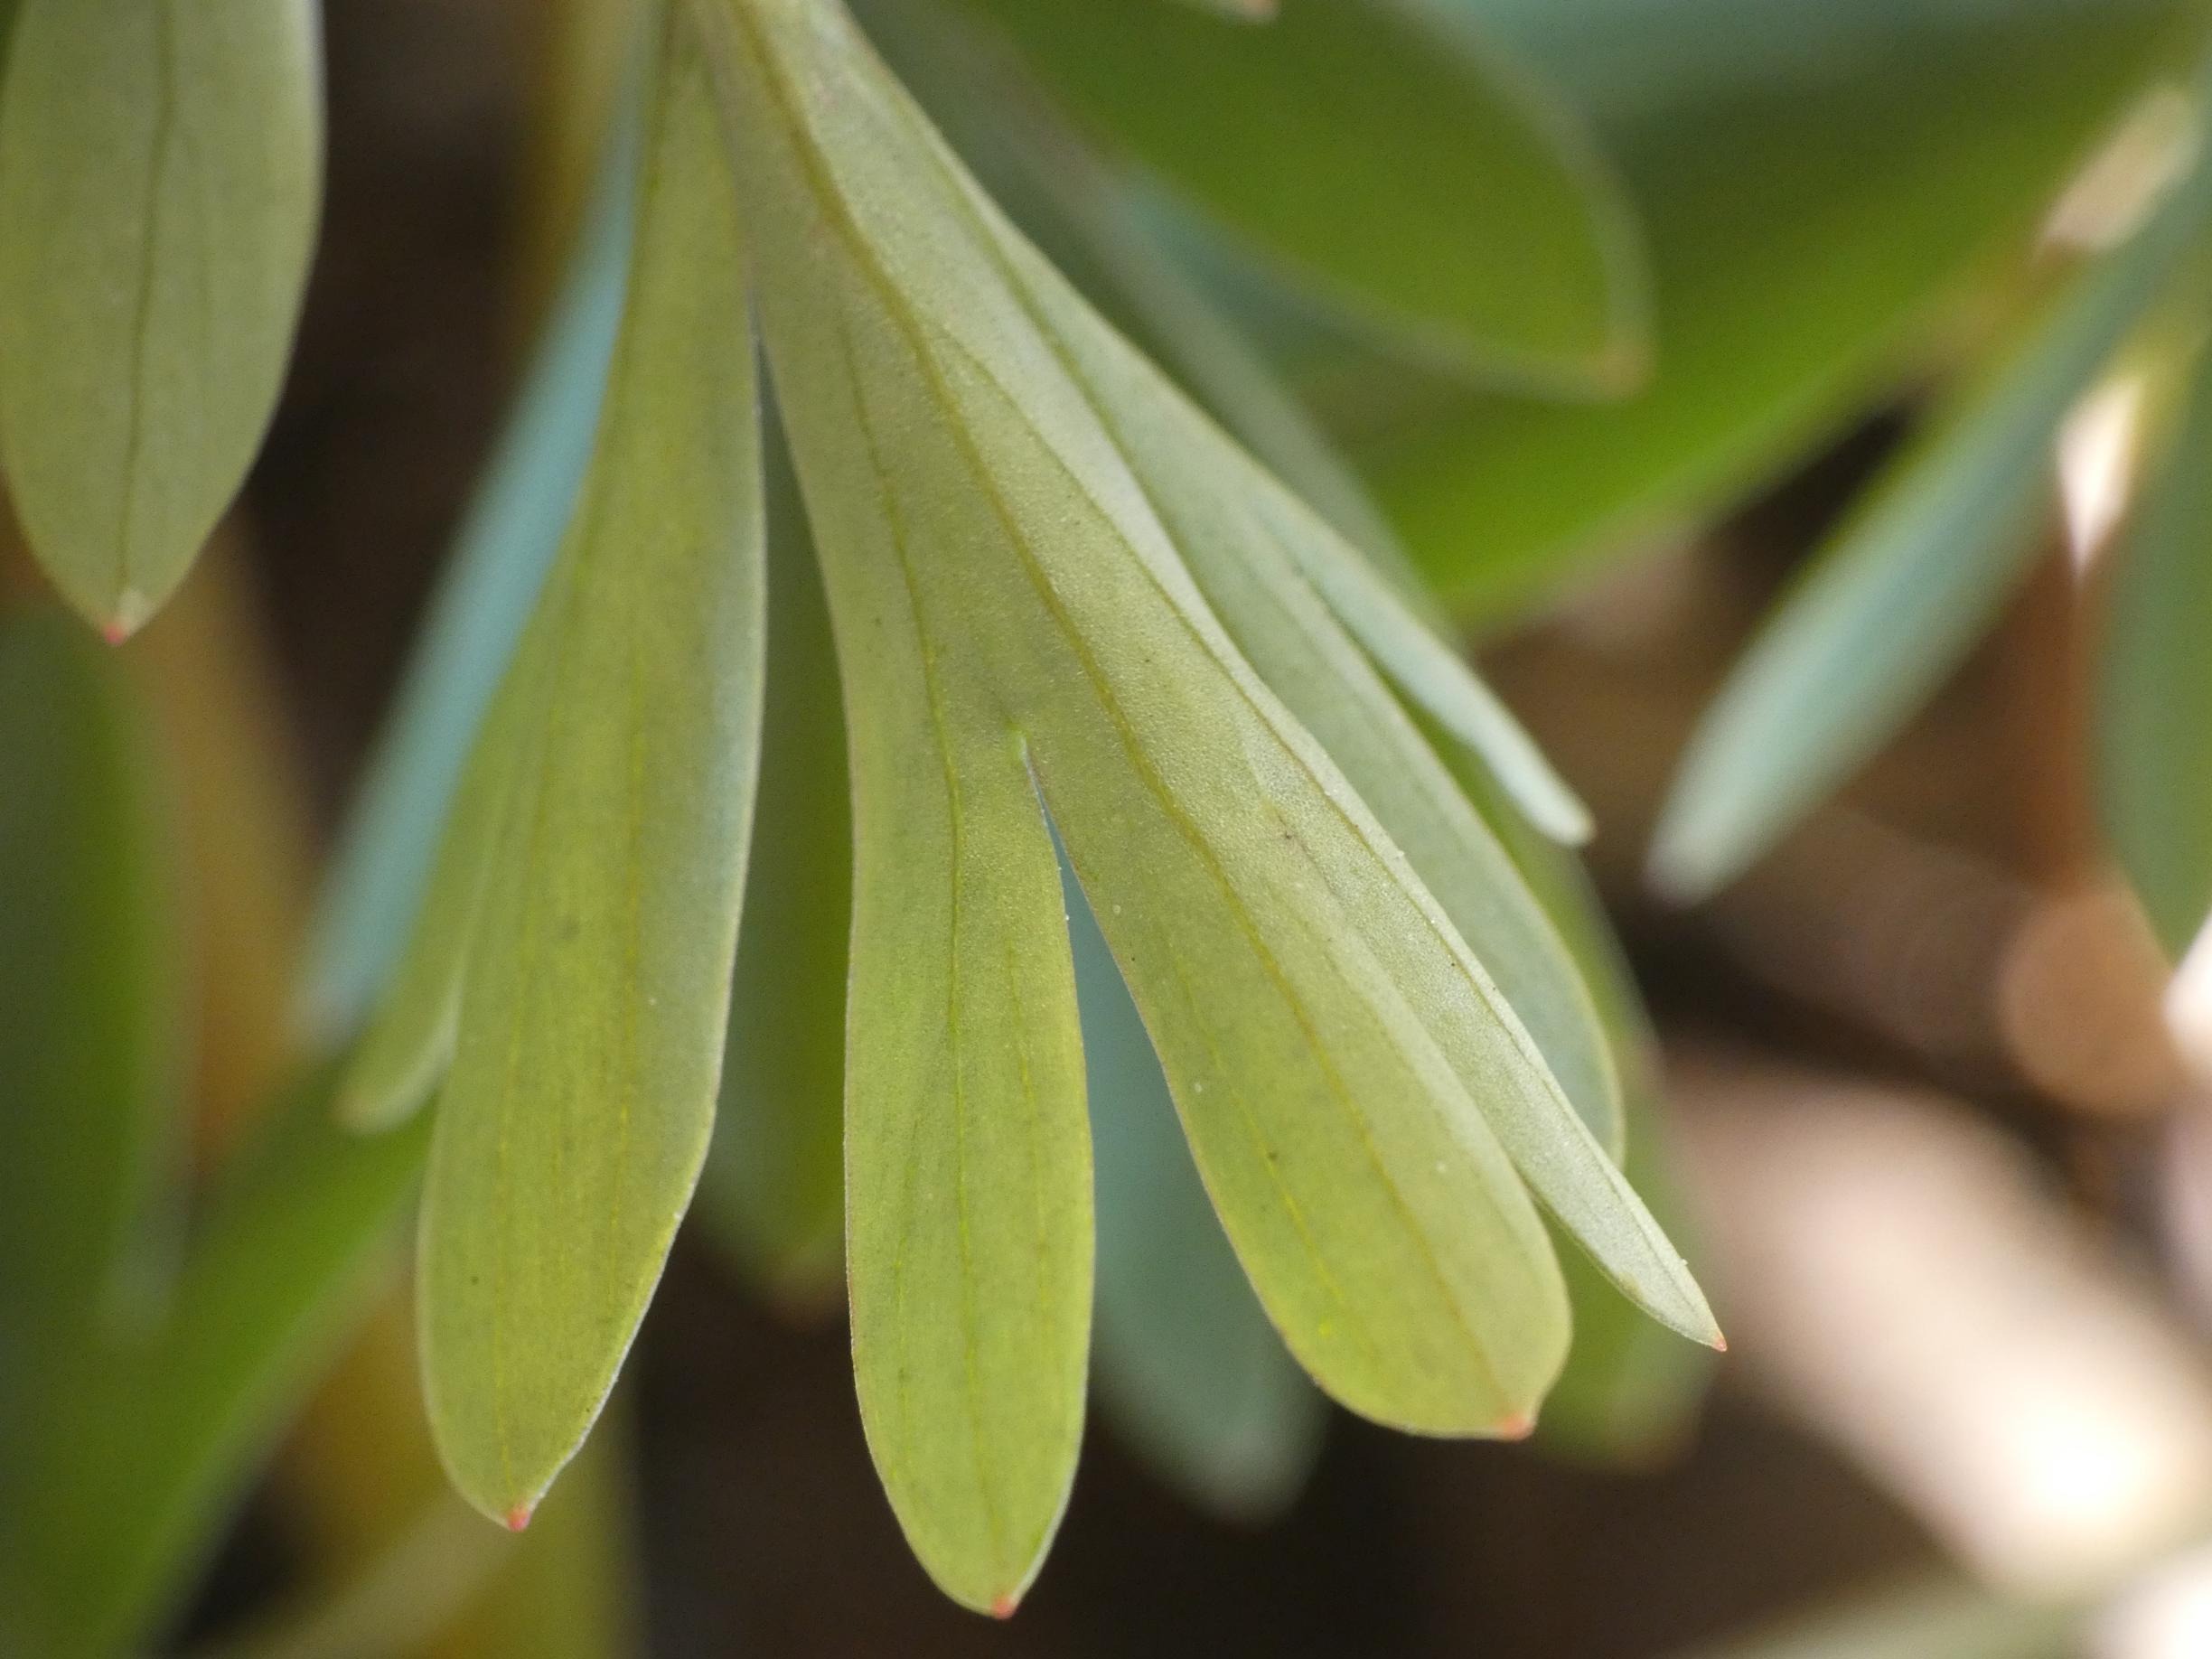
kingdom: Plantae
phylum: Tracheophyta
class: Magnoliopsida
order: Ranunculales
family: Papaveraceae
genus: Corydalis
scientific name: Corydalis solida
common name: Langstilket lærkespore
